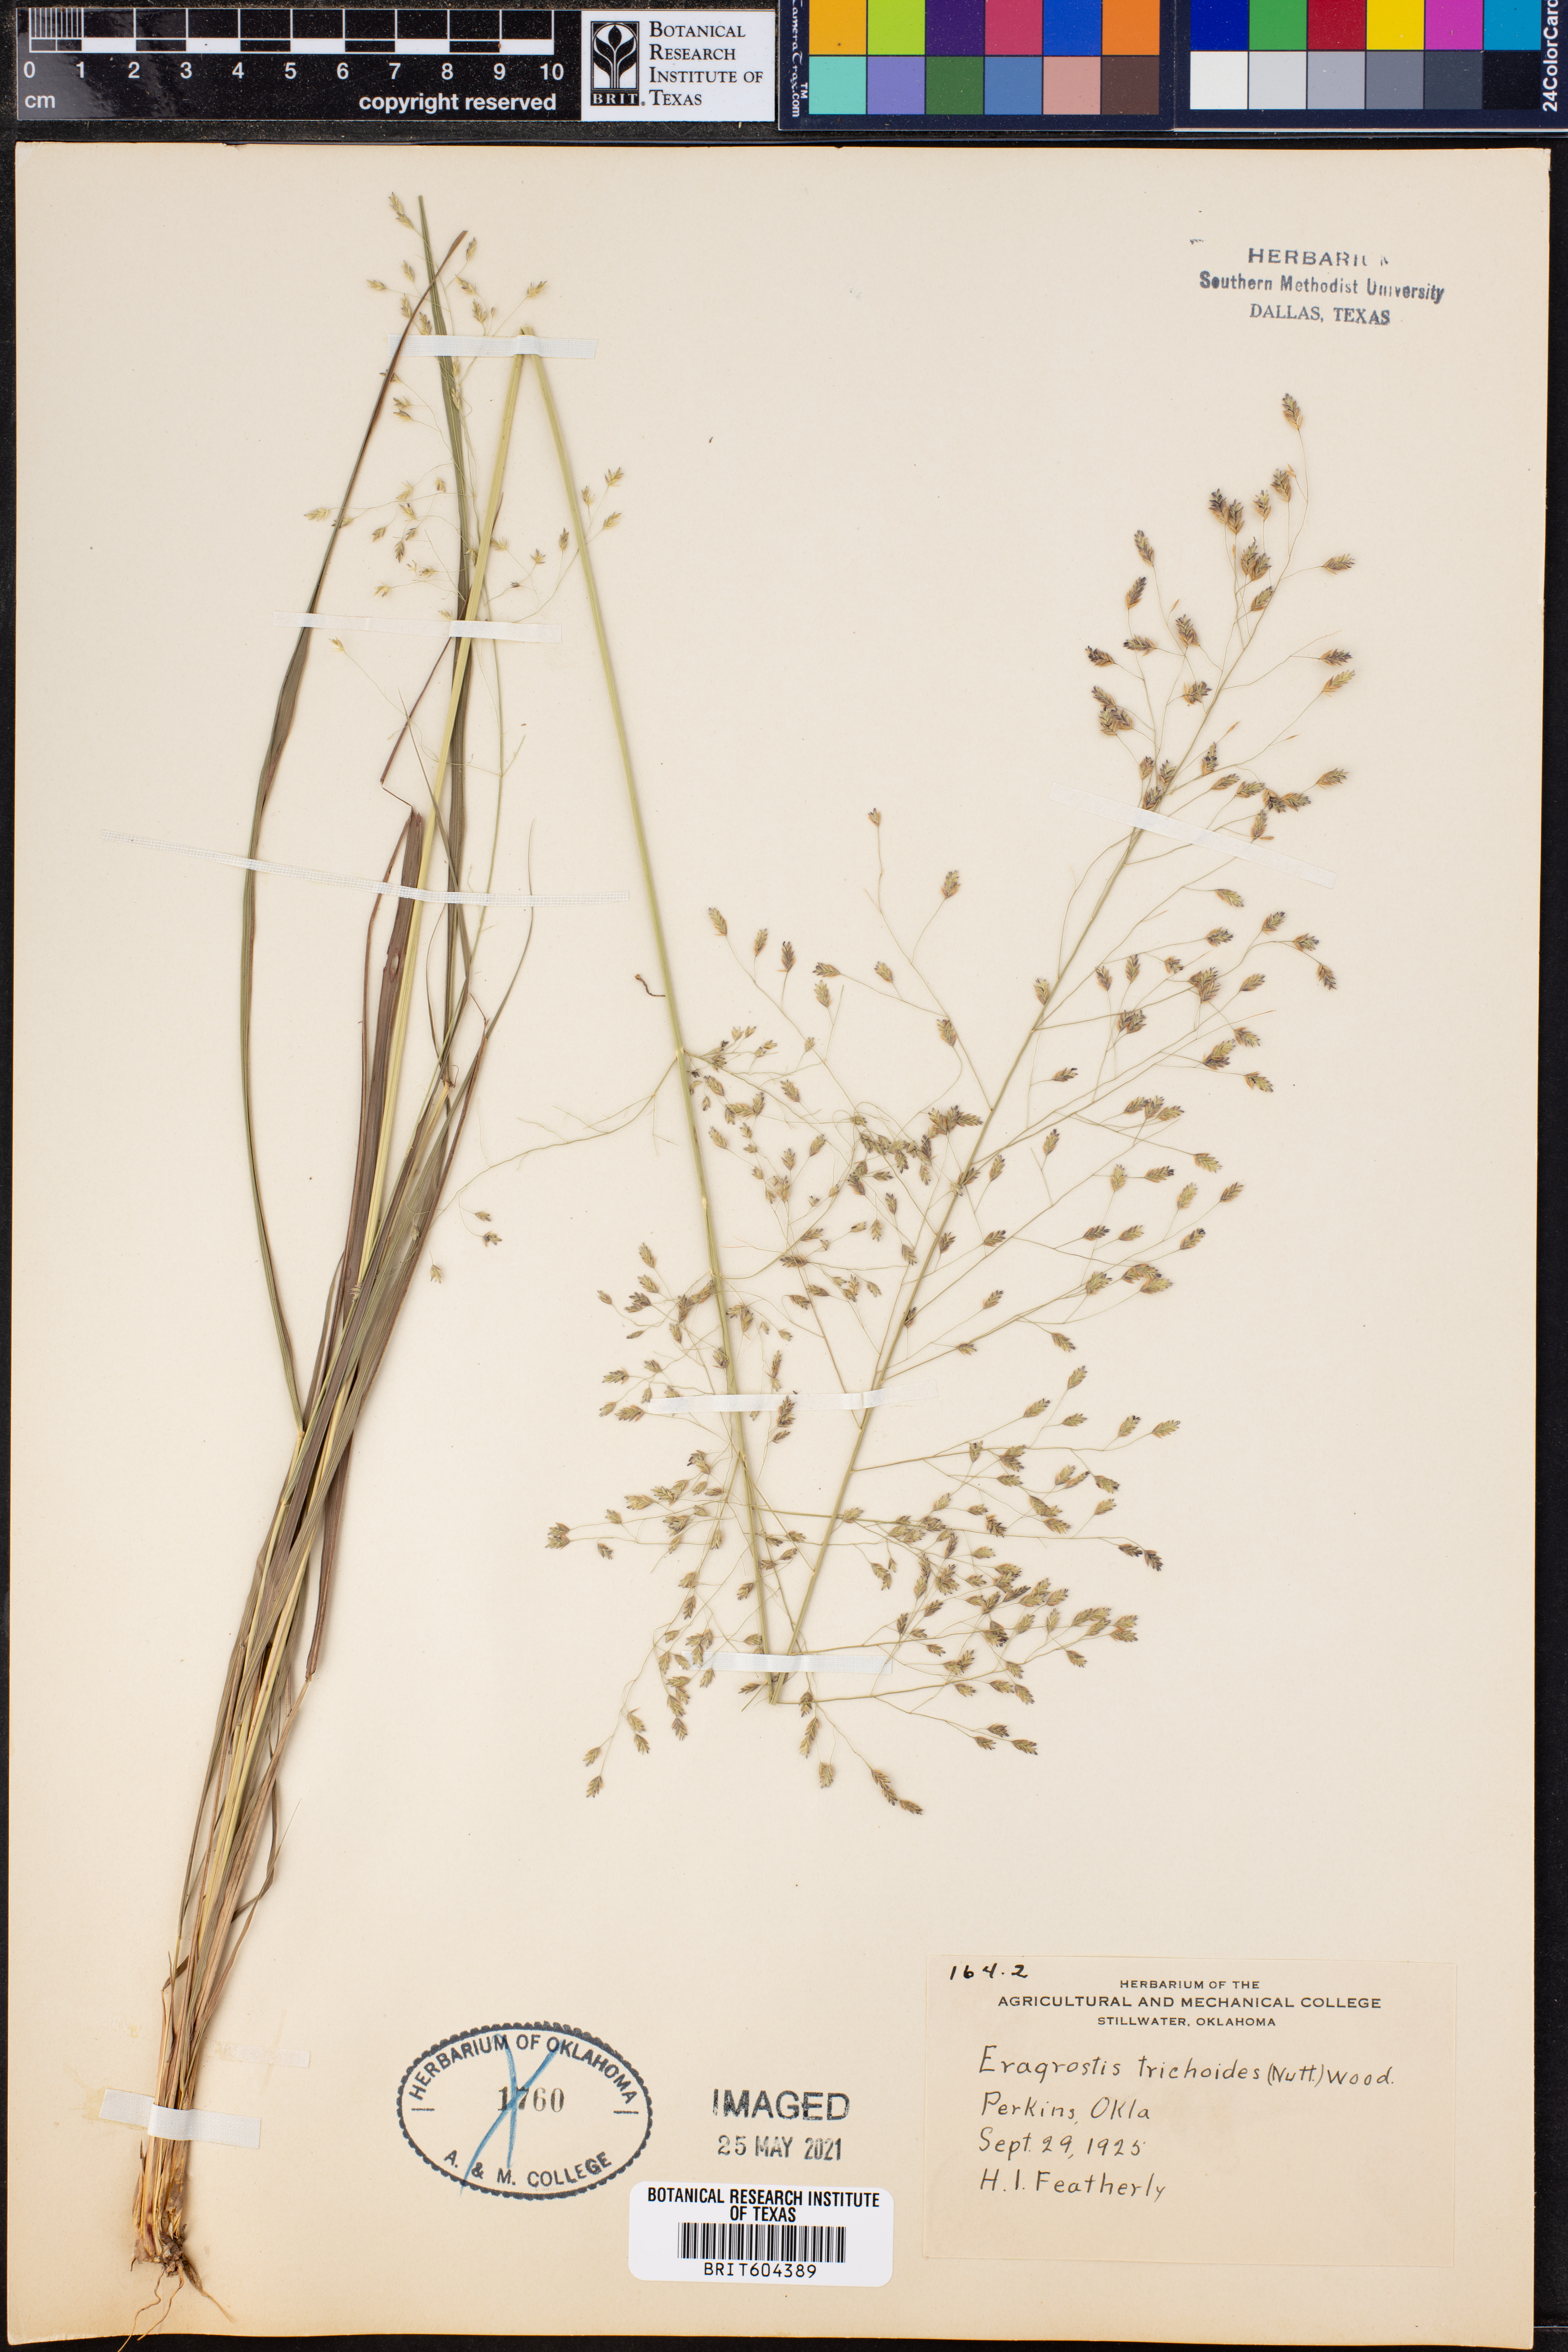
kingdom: Plantae
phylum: Tracheophyta
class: Liliopsida
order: Poales
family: Poaceae
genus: Eragrostis
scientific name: Eragrostis trichodes
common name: Sand love grass
